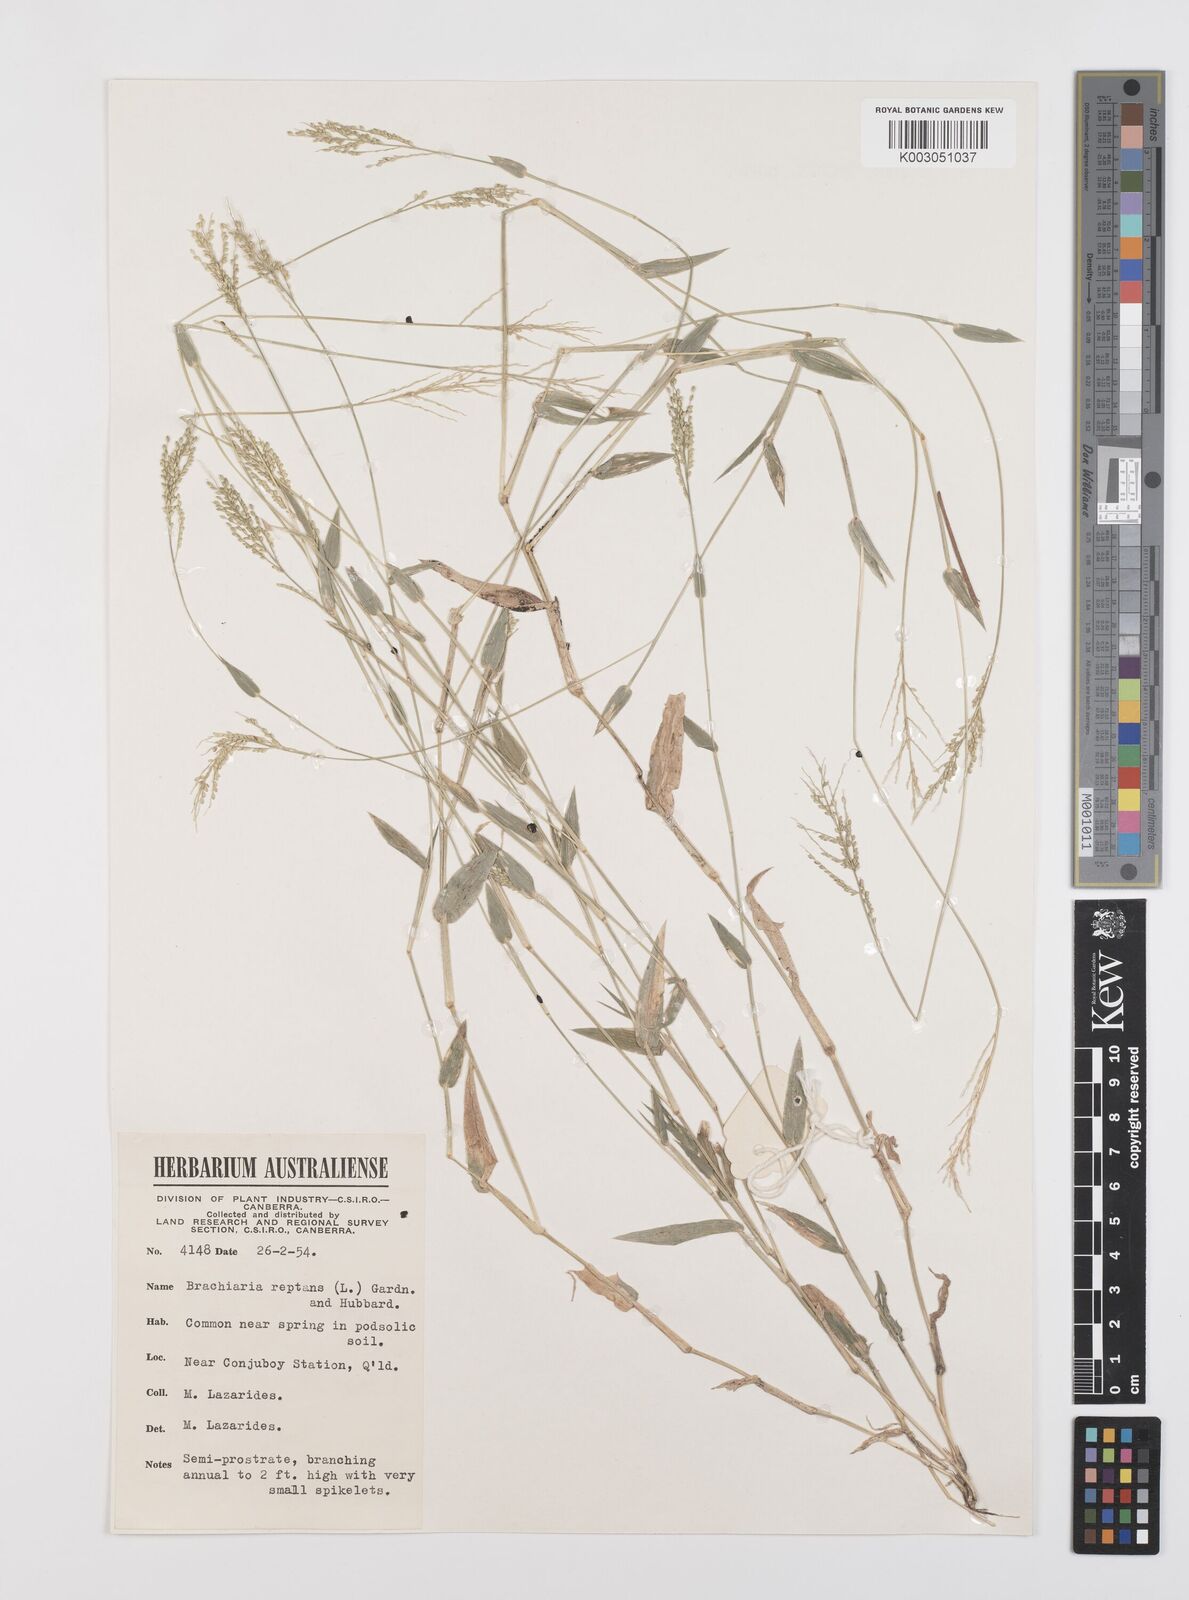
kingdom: Plantae
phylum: Tracheophyta
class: Liliopsida
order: Poales
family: Poaceae
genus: Urochloa
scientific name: Urochloa reptans
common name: Sprawling signalgrass
